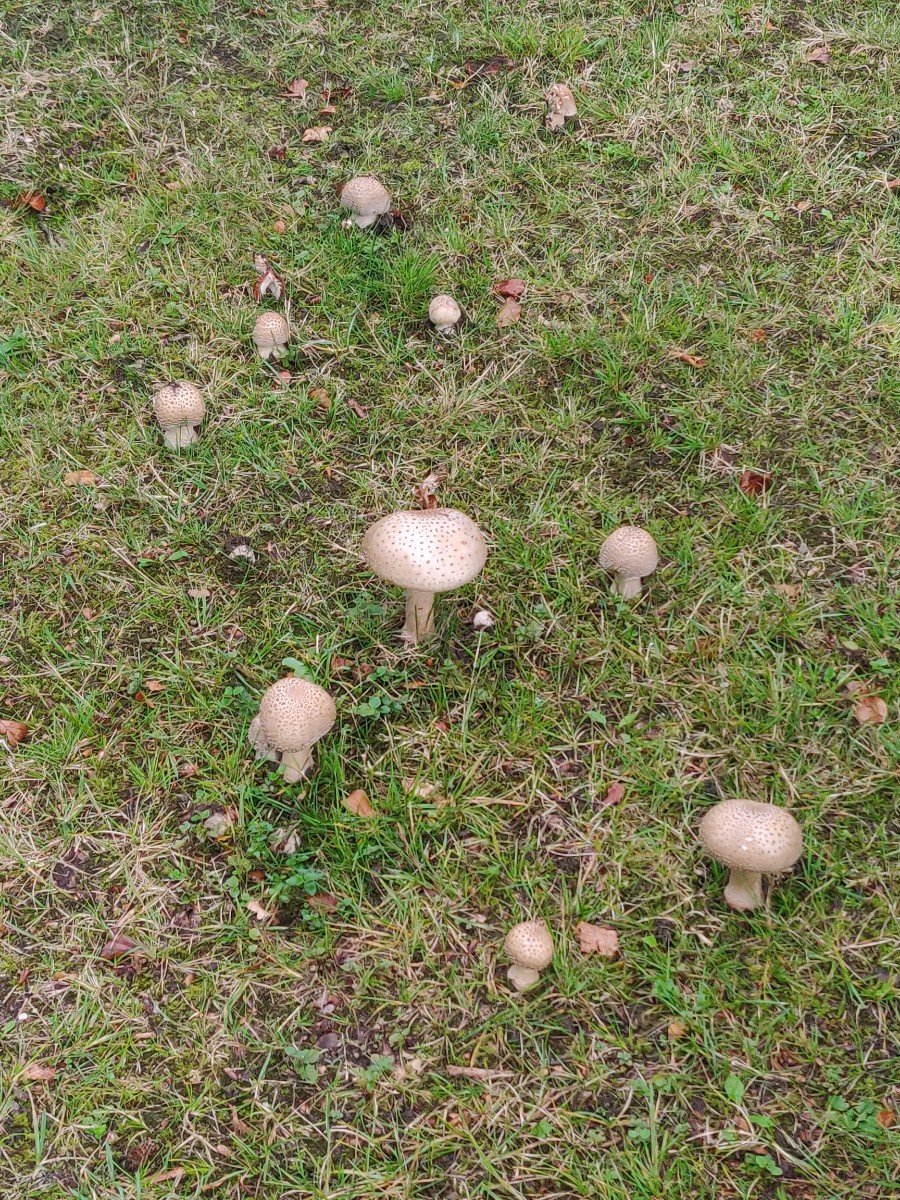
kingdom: Fungi
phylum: Basidiomycota
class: Agaricomycetes
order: Agaricales
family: Amanitaceae
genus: Amanita
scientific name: Amanita rubescens
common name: rødmende fluesvamp
